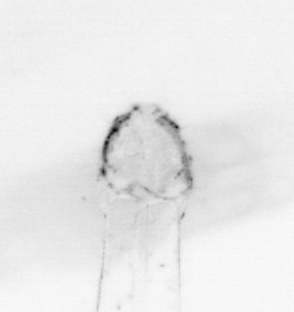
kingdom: Animalia
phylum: Chaetognatha
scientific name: Chaetognatha
